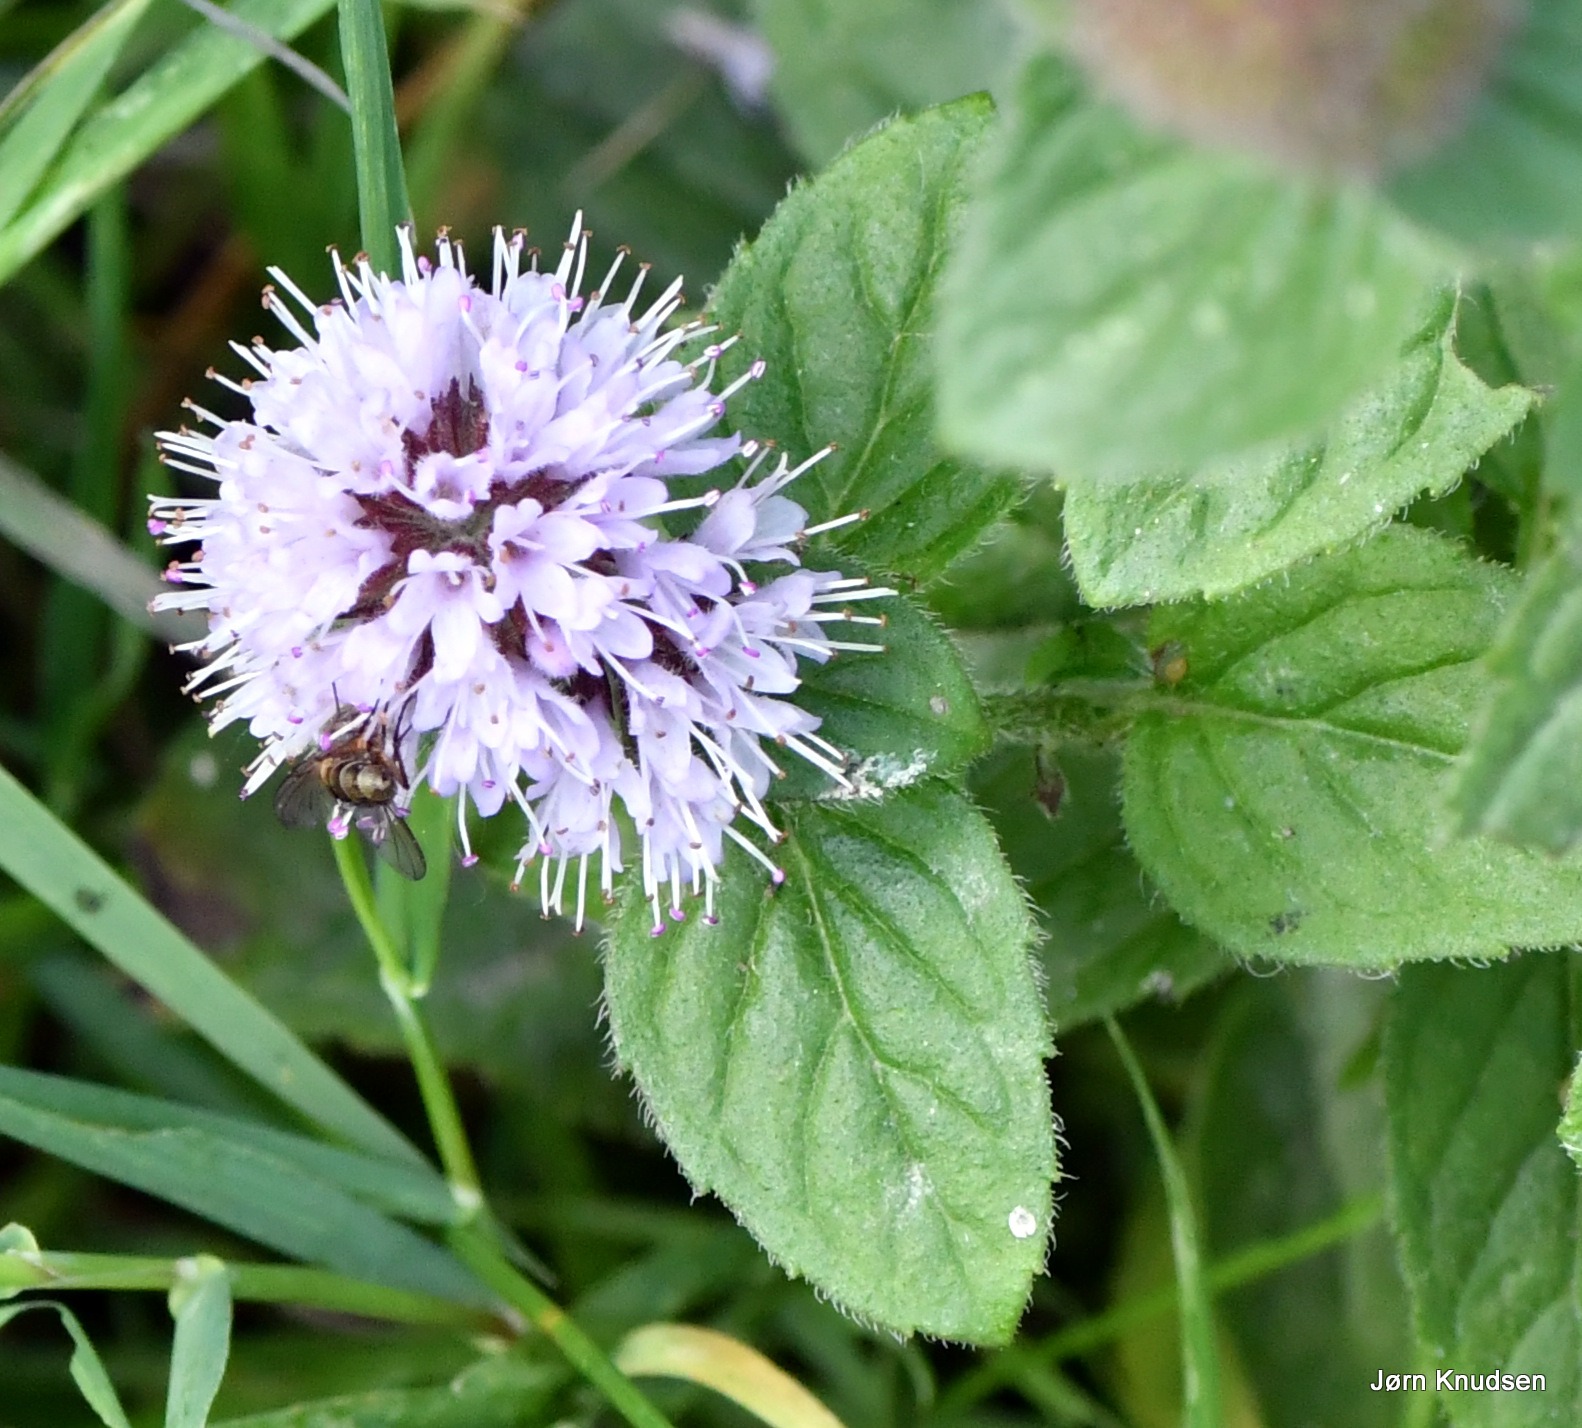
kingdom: Plantae
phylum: Tracheophyta
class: Magnoliopsida
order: Lamiales
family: Lamiaceae
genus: Mentha
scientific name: Mentha aquatica
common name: Vand-mynte
